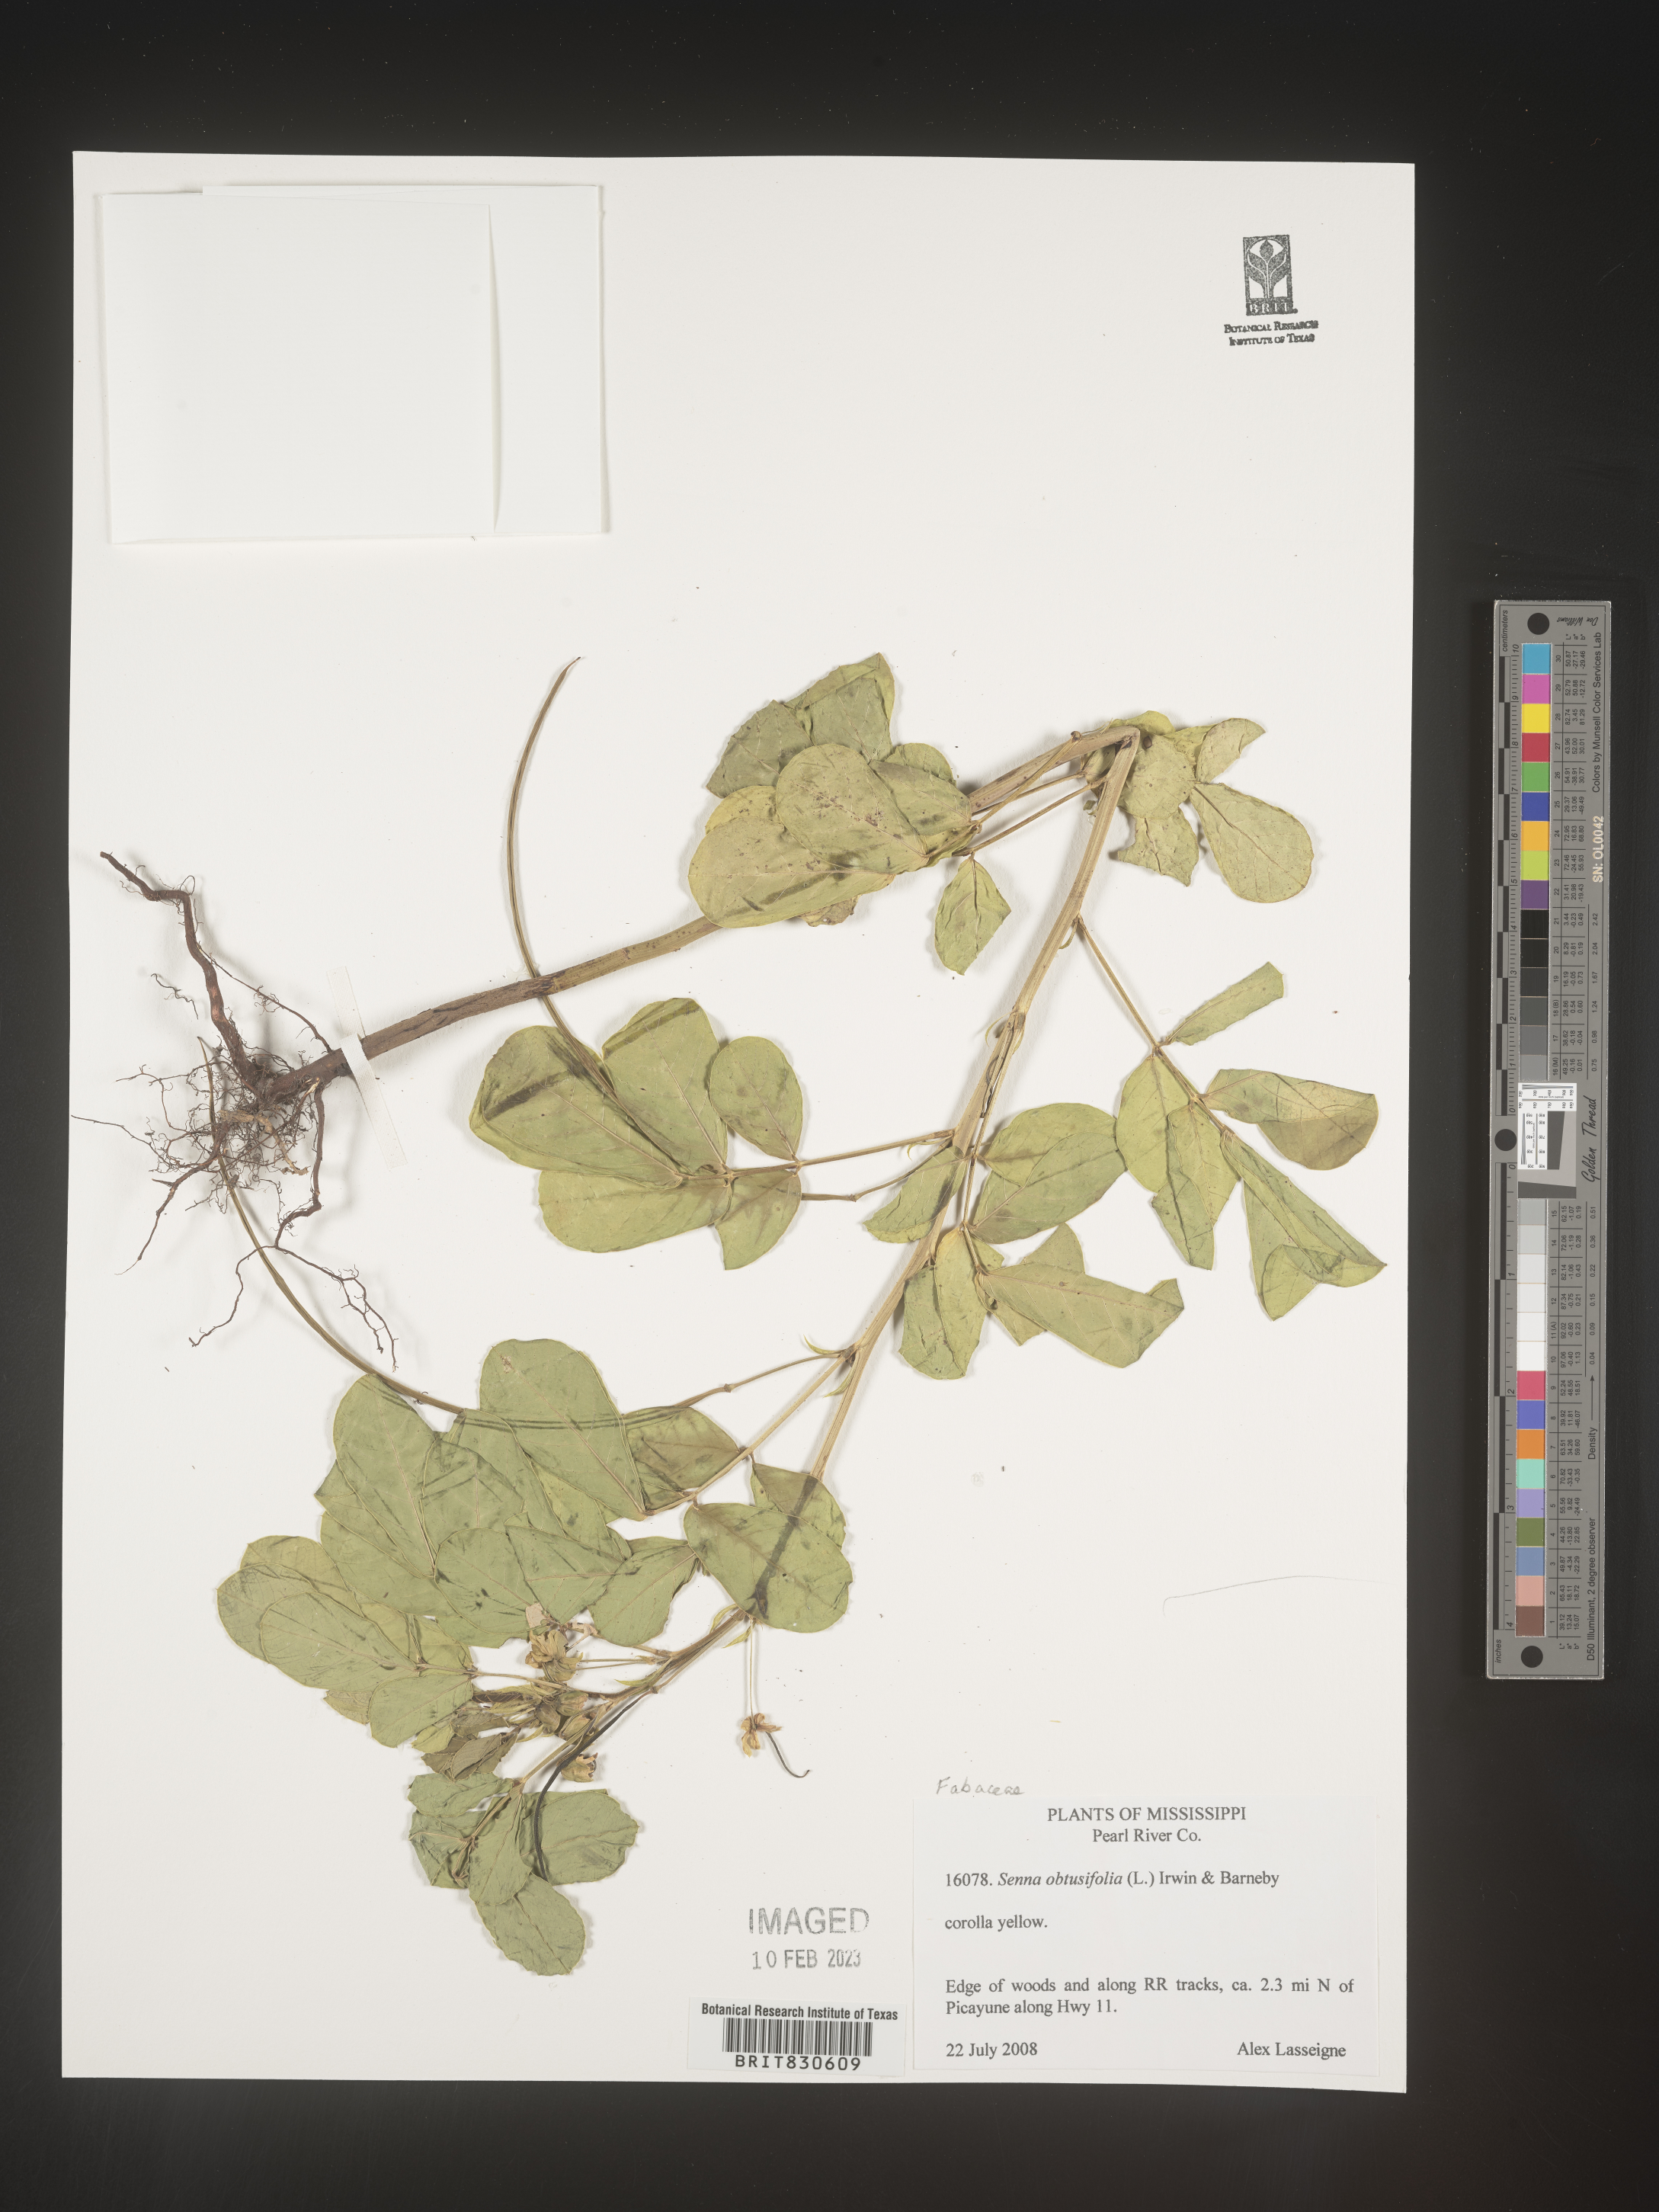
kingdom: Plantae
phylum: Tracheophyta
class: Magnoliopsida
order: Fabales
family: Fabaceae
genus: Senna
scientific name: Senna obtusifolia
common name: Java-bean
